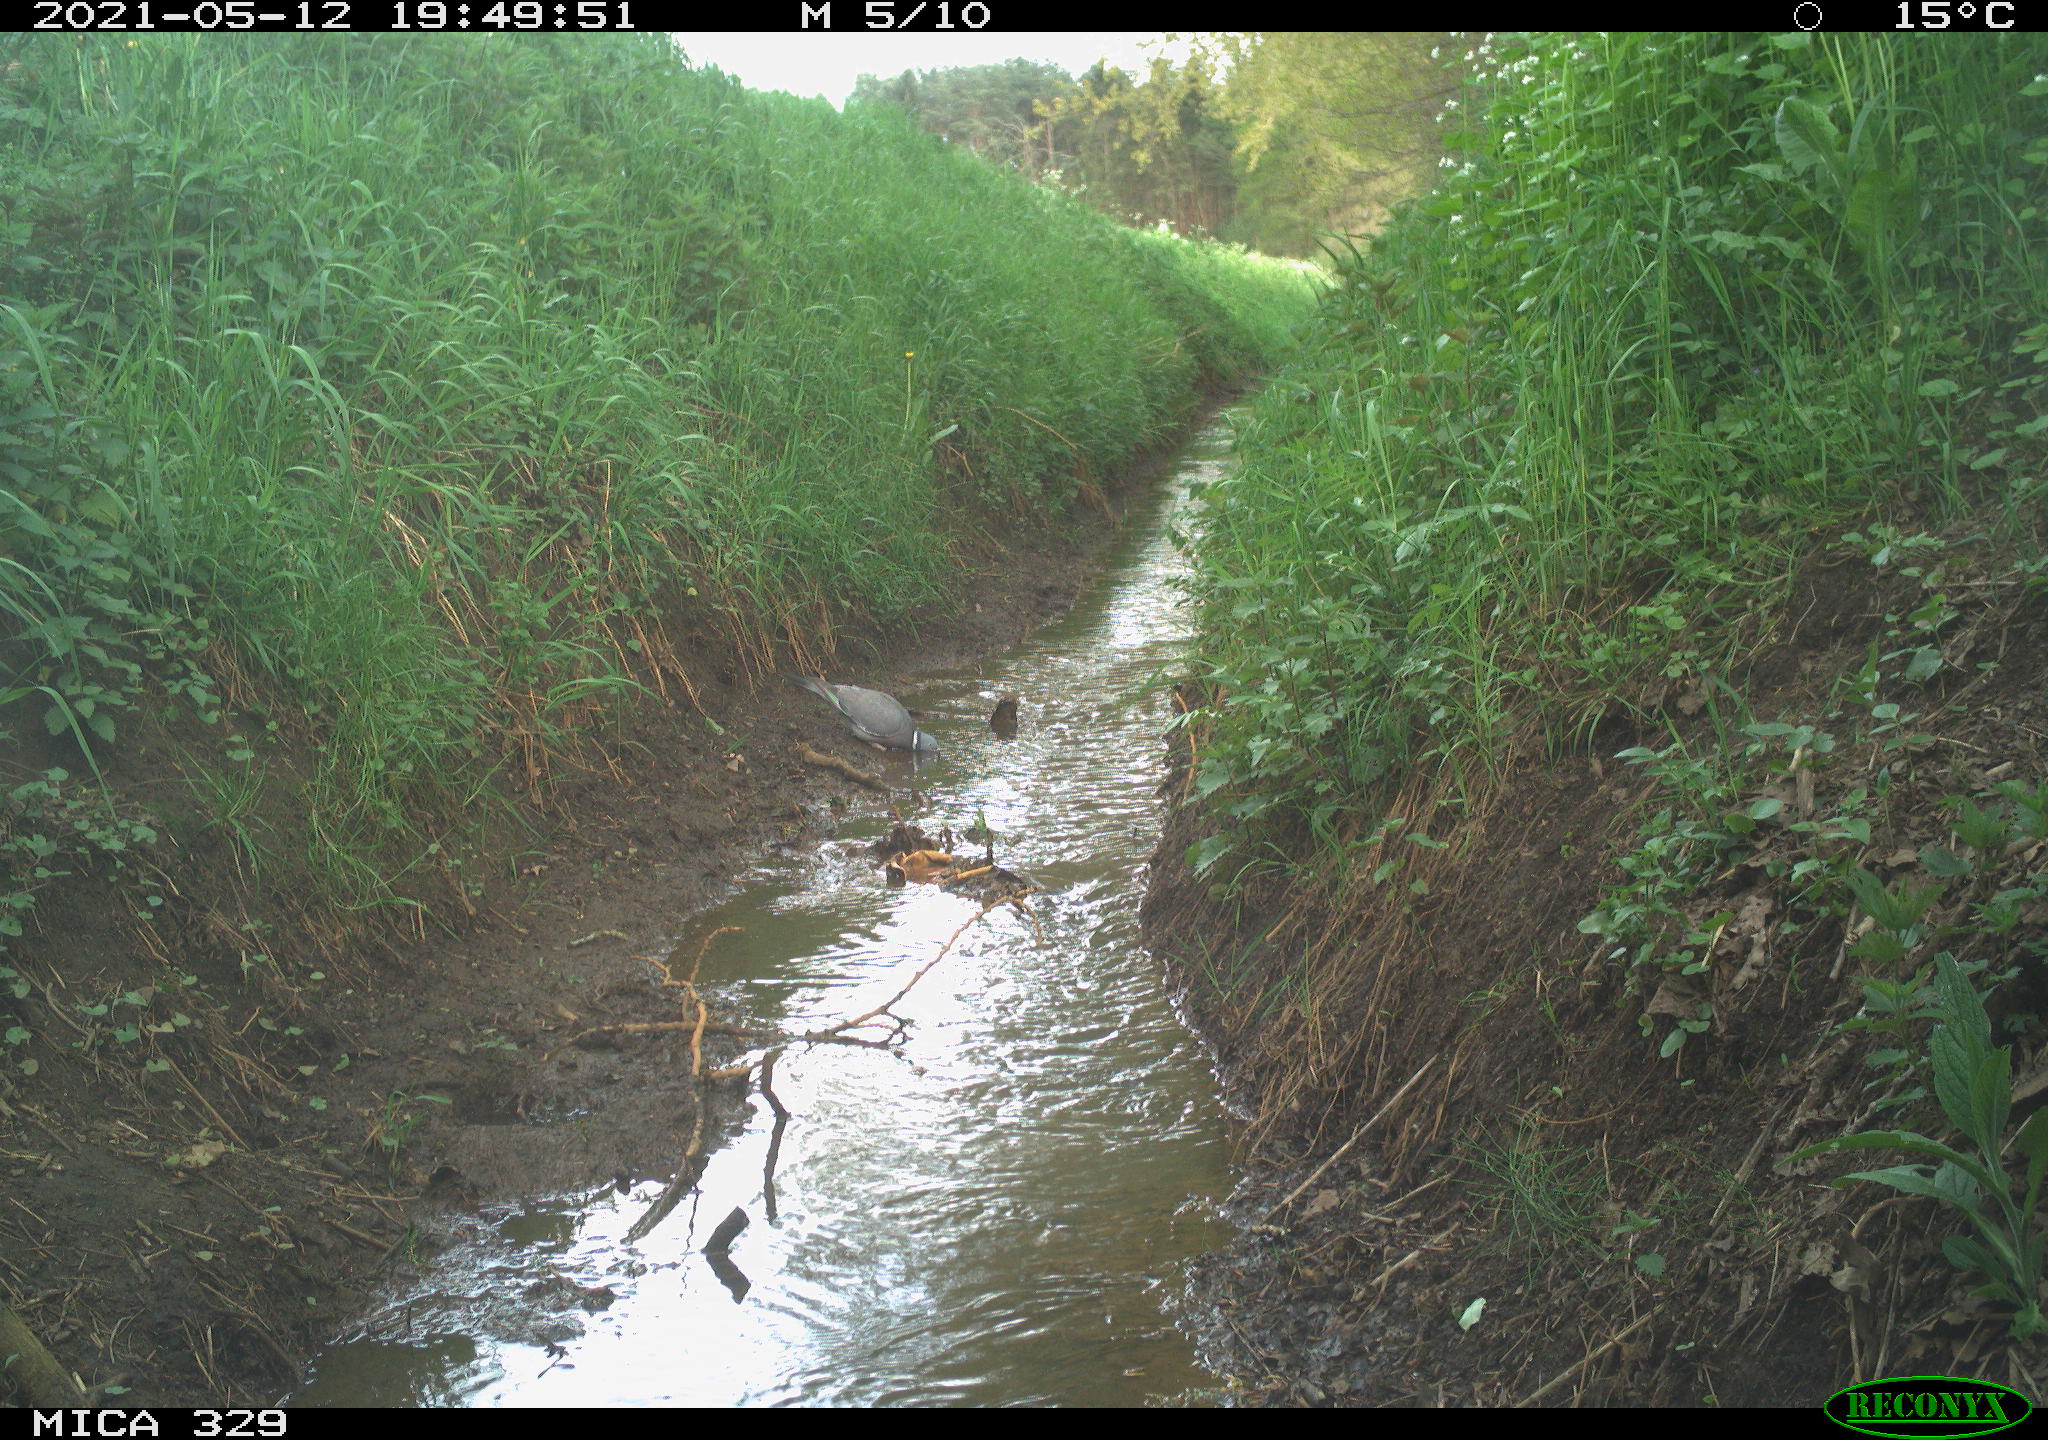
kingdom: Animalia
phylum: Chordata
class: Aves
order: Columbiformes
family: Columbidae
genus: Columba
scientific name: Columba palumbus
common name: Common wood pigeon
